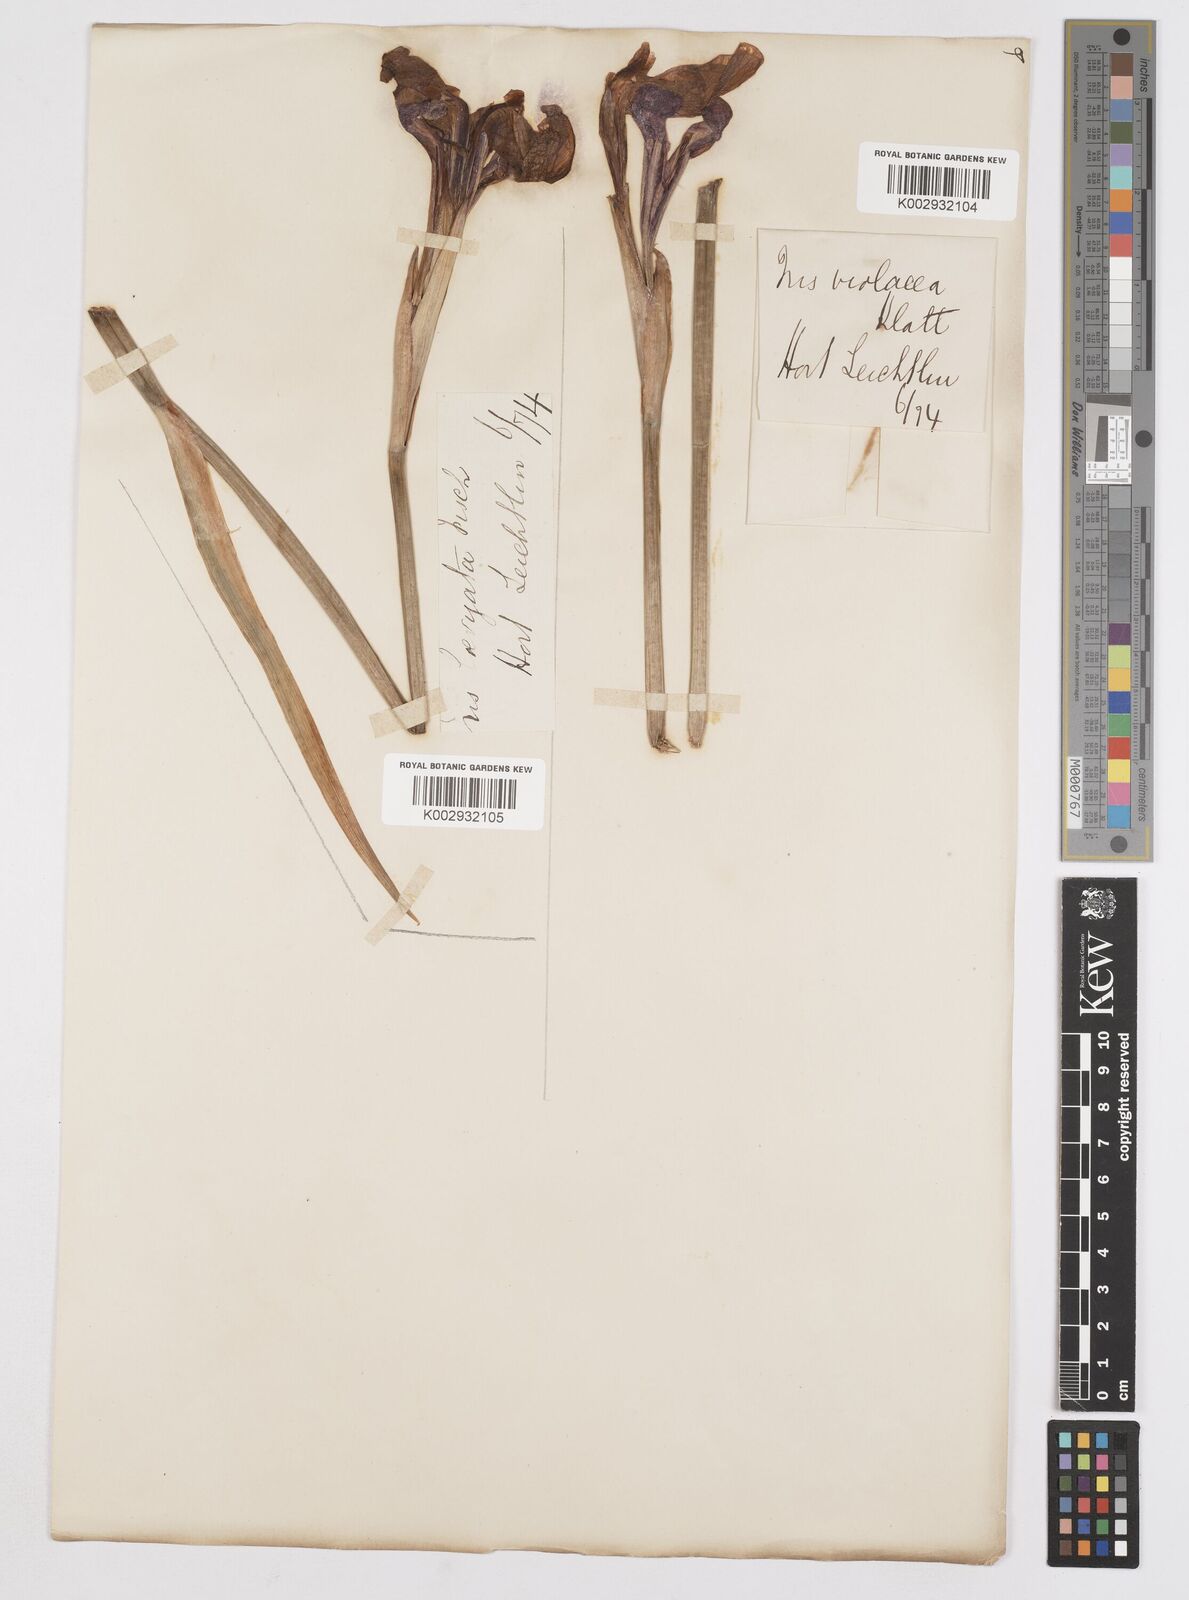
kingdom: Plantae
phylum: Tracheophyta
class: Liliopsida
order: Asparagales
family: Iridaceae
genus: Iris
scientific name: Iris laevigata
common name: Japanese iris
